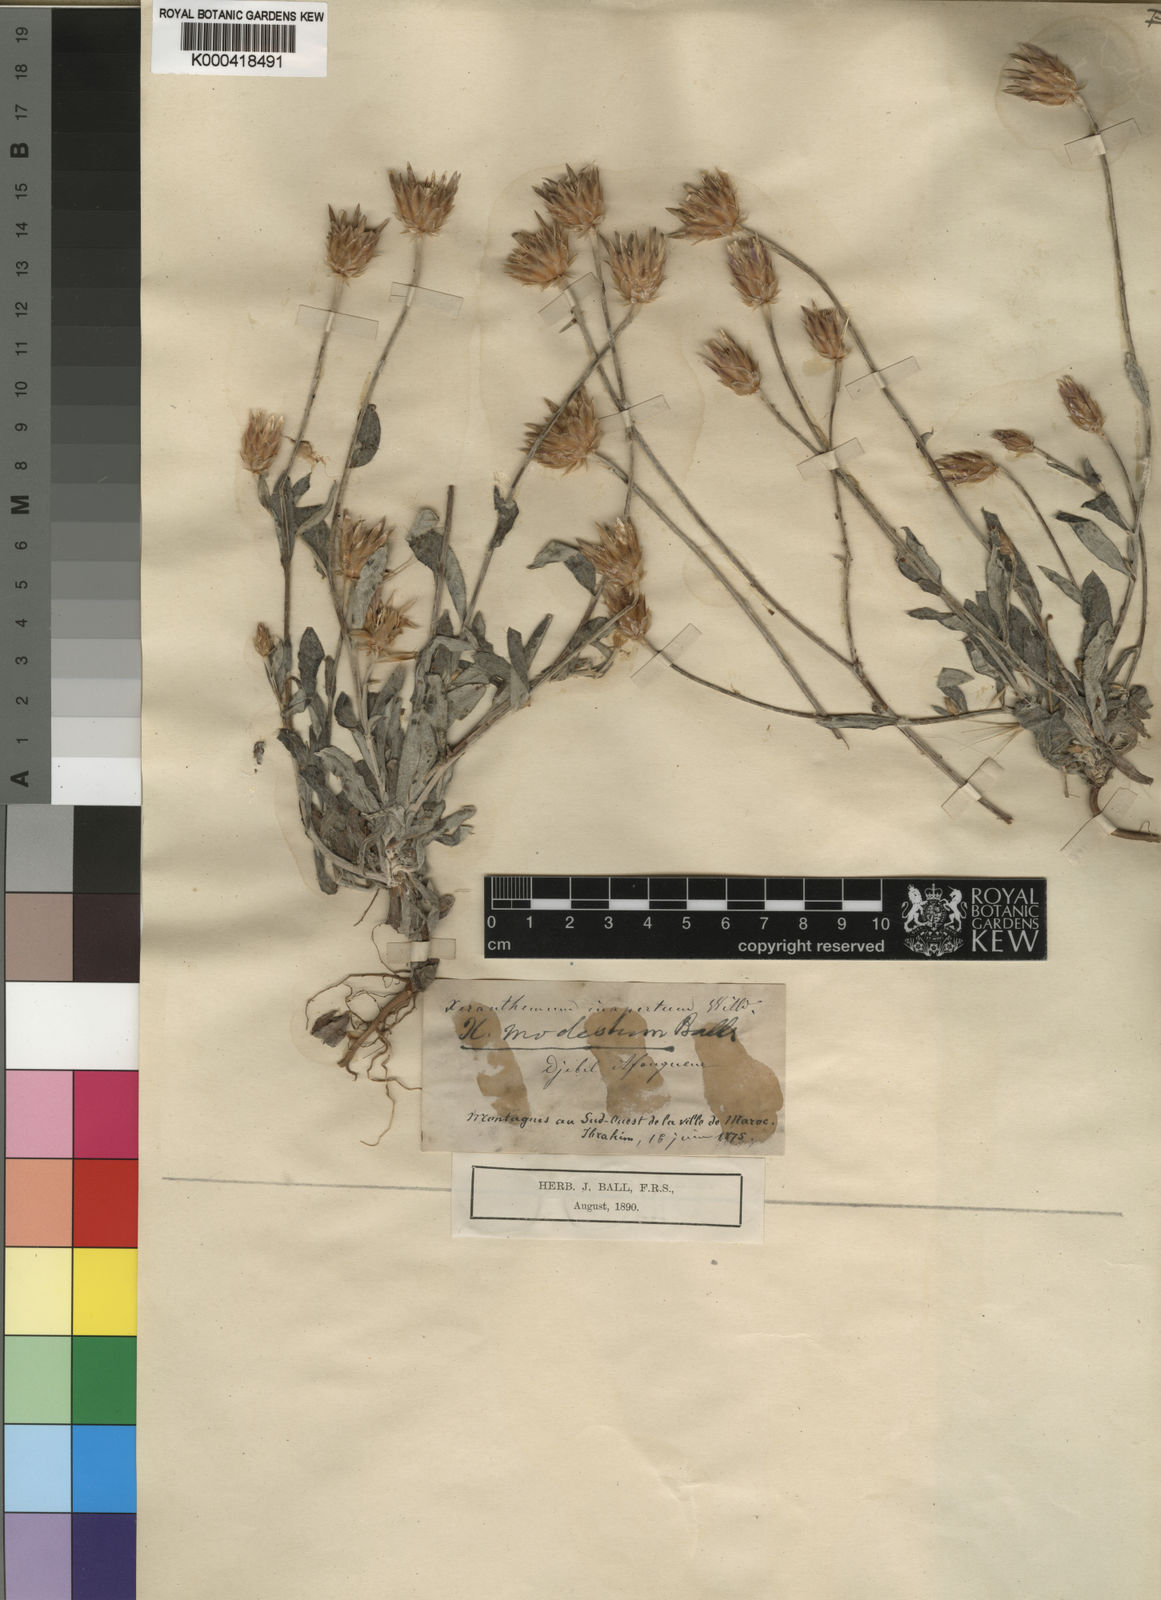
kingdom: Plantae
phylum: Tracheophyta
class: Magnoliopsida
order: Asterales
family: Asteraceae
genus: Xeranthemum
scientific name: Xeranthemum inapertum
